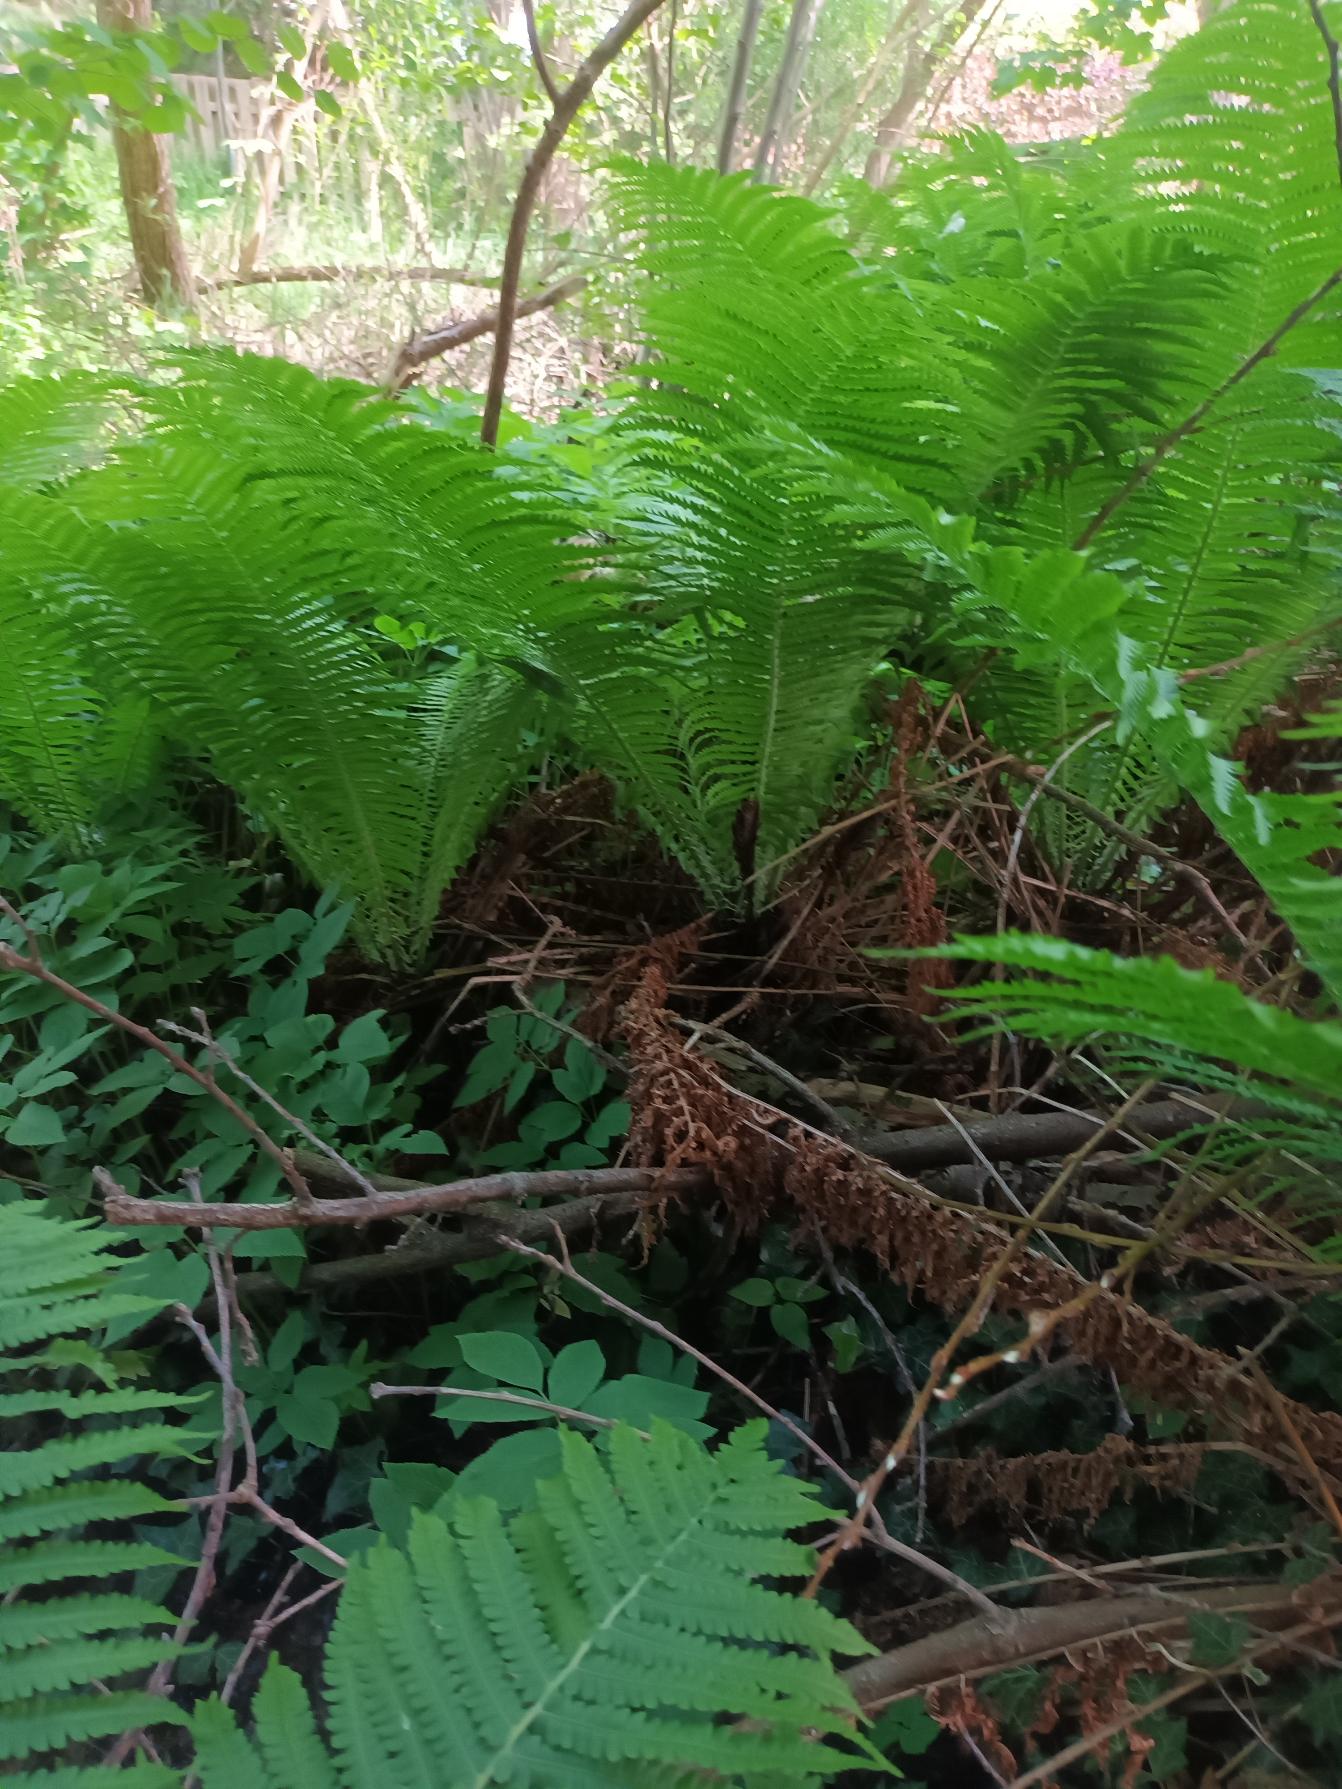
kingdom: Plantae
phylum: Tracheophyta
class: Polypodiopsida
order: Polypodiales
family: Onocleaceae
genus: Matteuccia
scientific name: Matteuccia struthiopteris
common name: Strudsvinge
